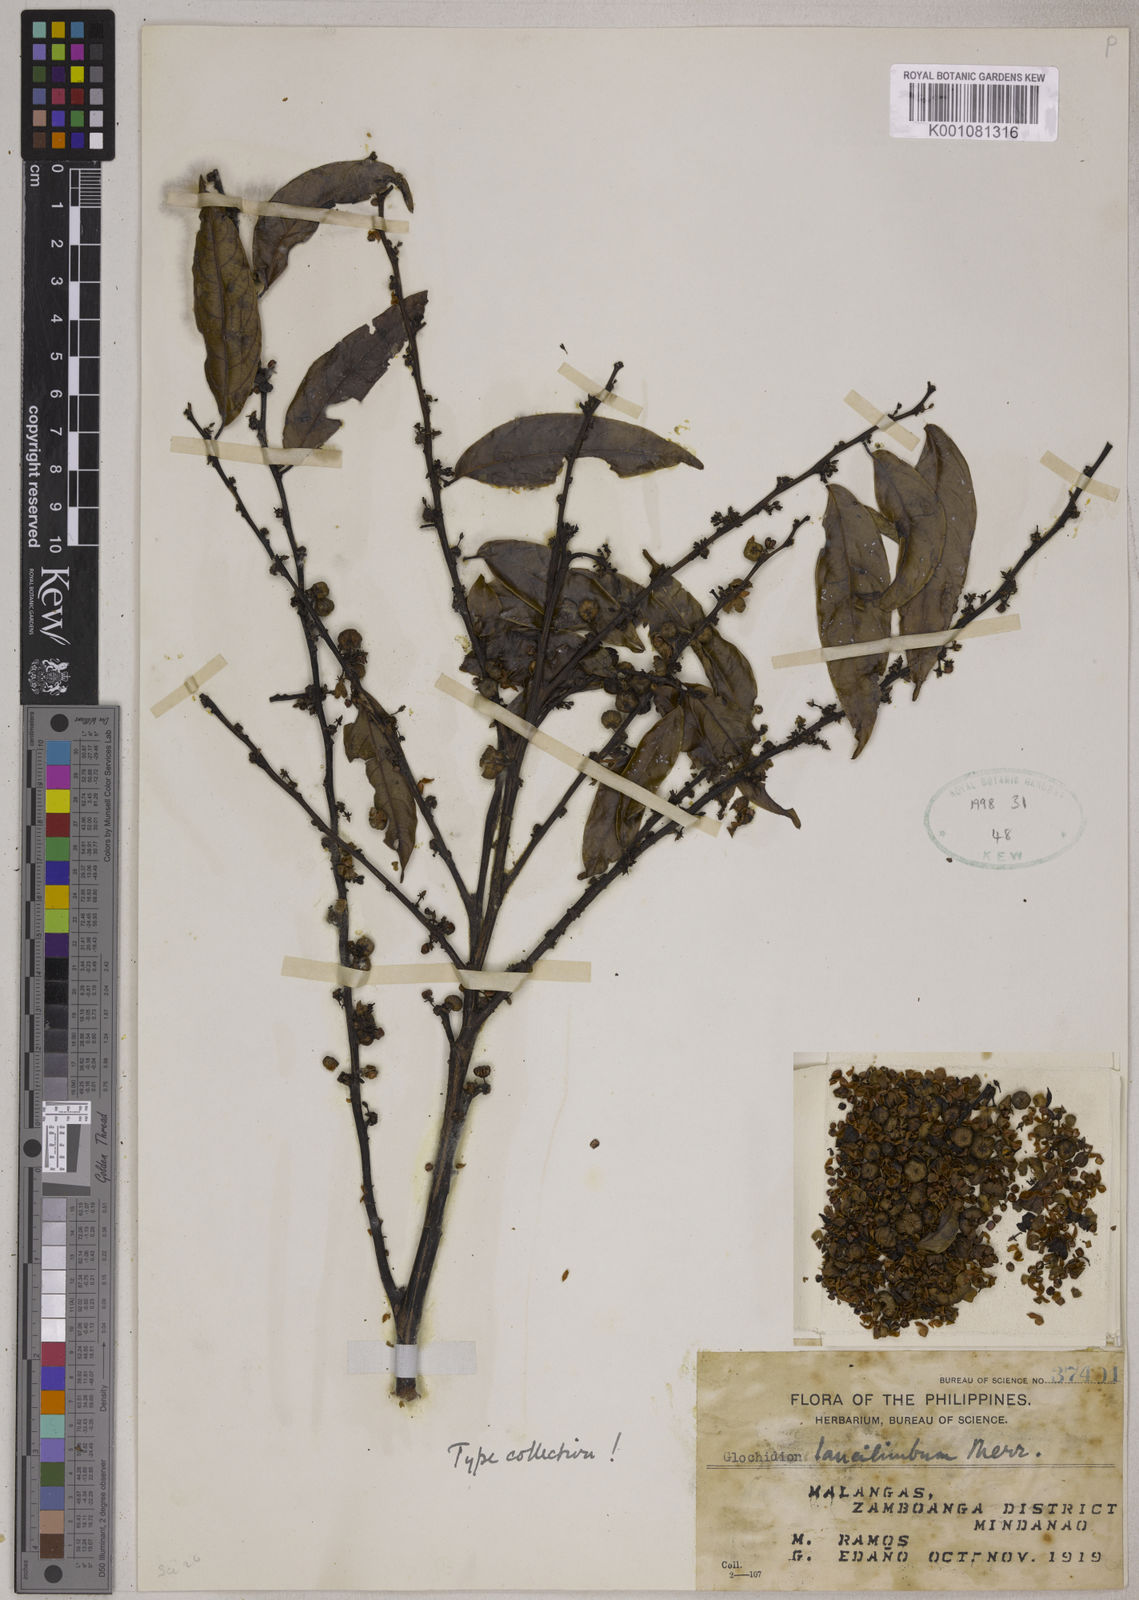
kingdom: Plantae
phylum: Tracheophyta
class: Magnoliopsida
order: Malpighiales
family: Phyllanthaceae
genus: Glochidion
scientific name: Glochidion lanceilimbum
